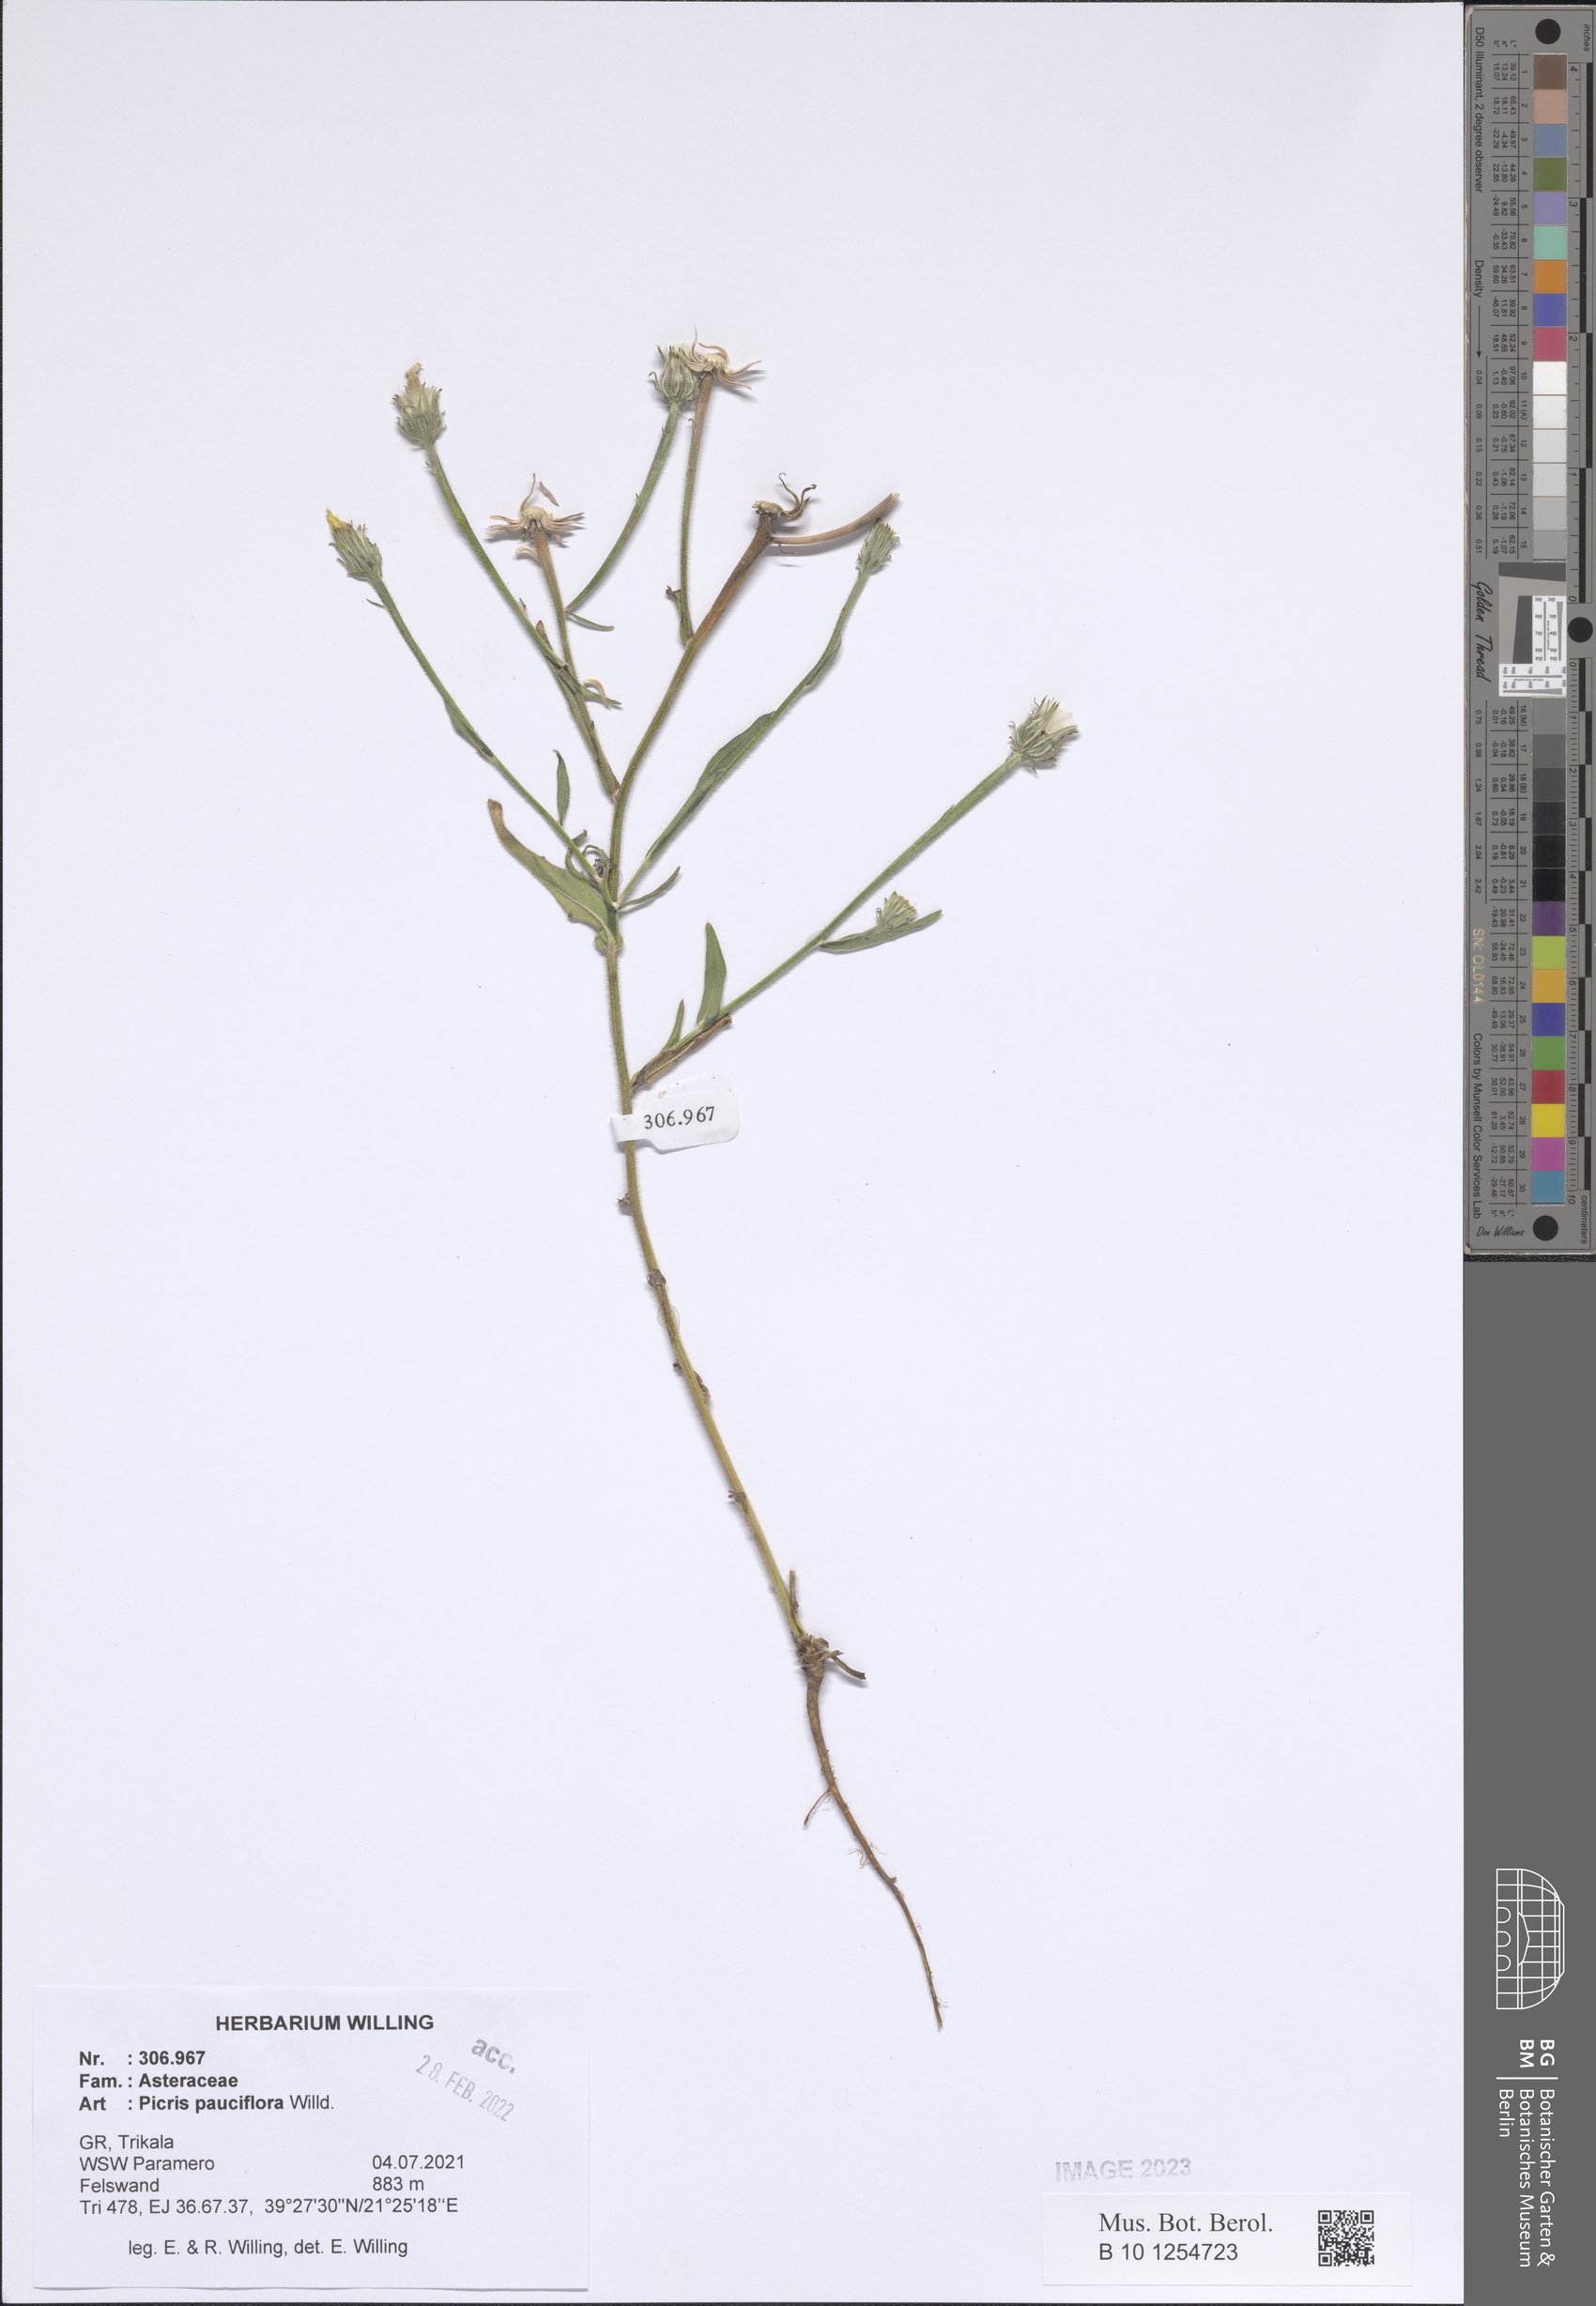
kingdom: Plantae
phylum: Tracheophyta
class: Magnoliopsida
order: Asterales
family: Asteraceae
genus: Picris
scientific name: Picris pauciflora
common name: Smallflower oxtongue
